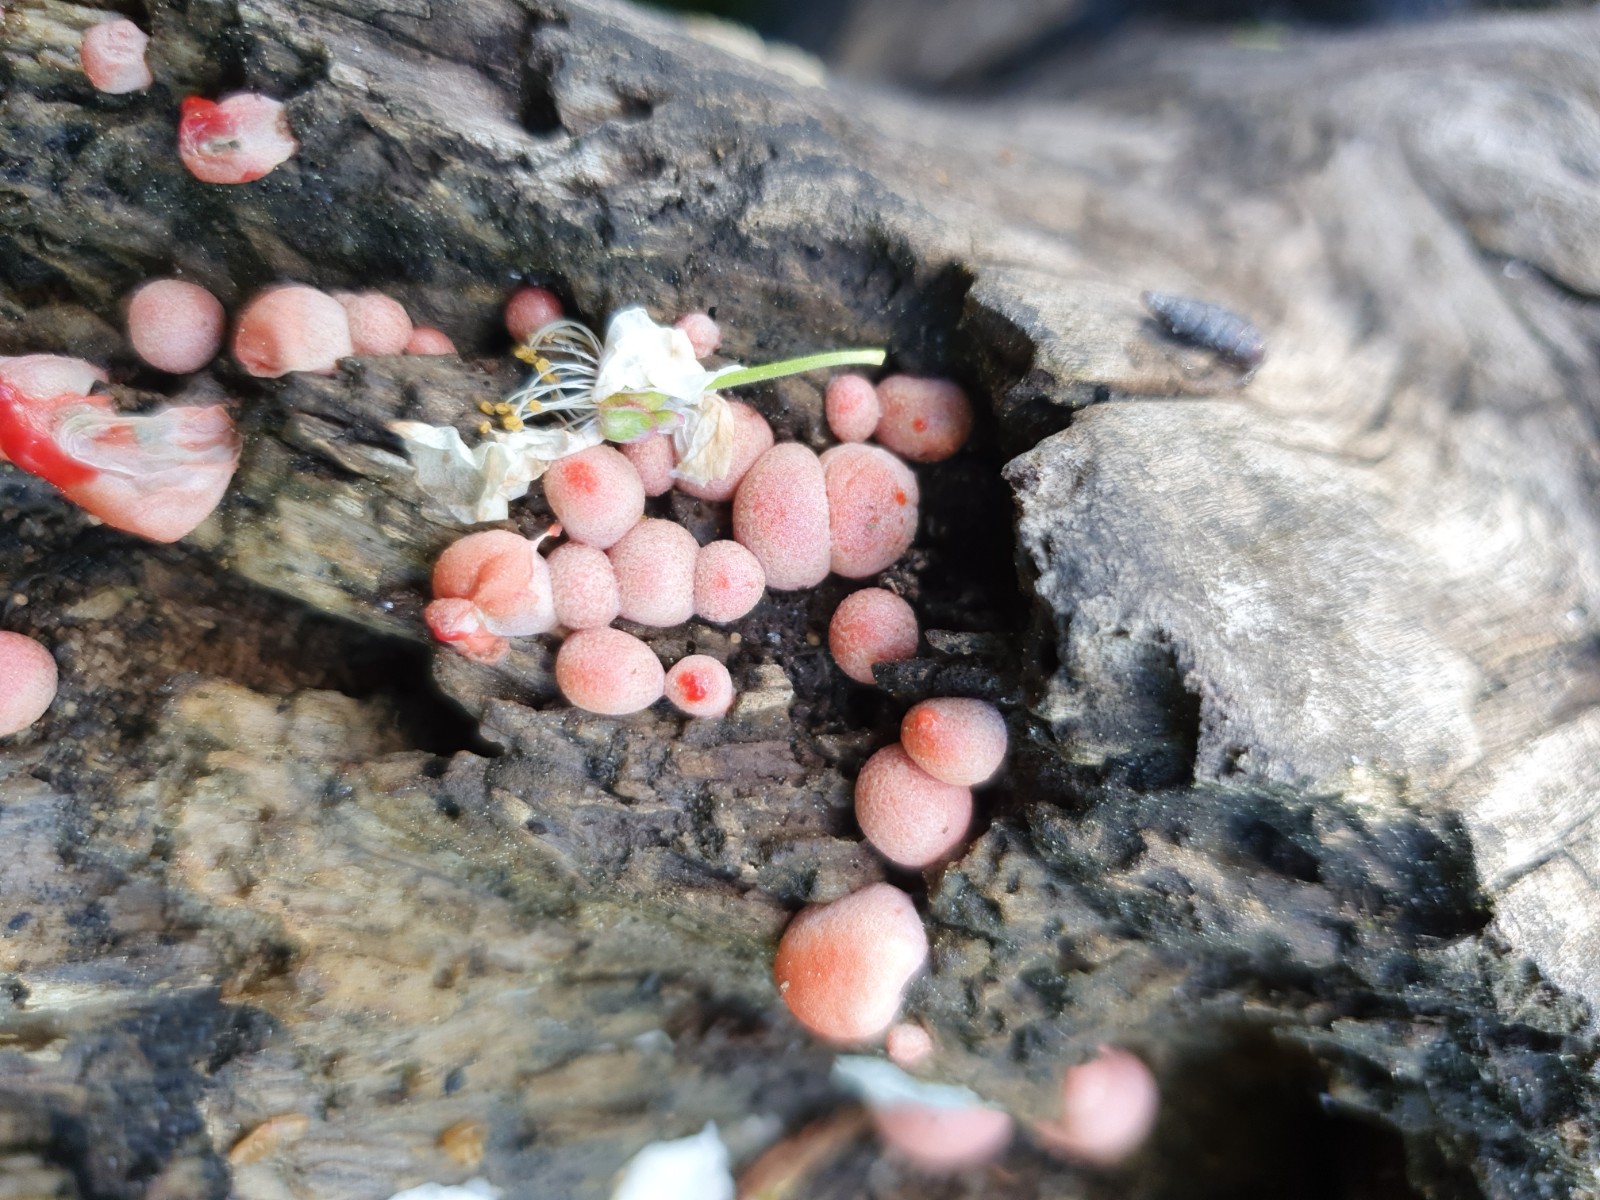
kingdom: Protozoa
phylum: Mycetozoa
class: Myxomycetes
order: Cribrariales
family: Tubiferaceae
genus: Lycogala
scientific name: Lycogala epidendrum
